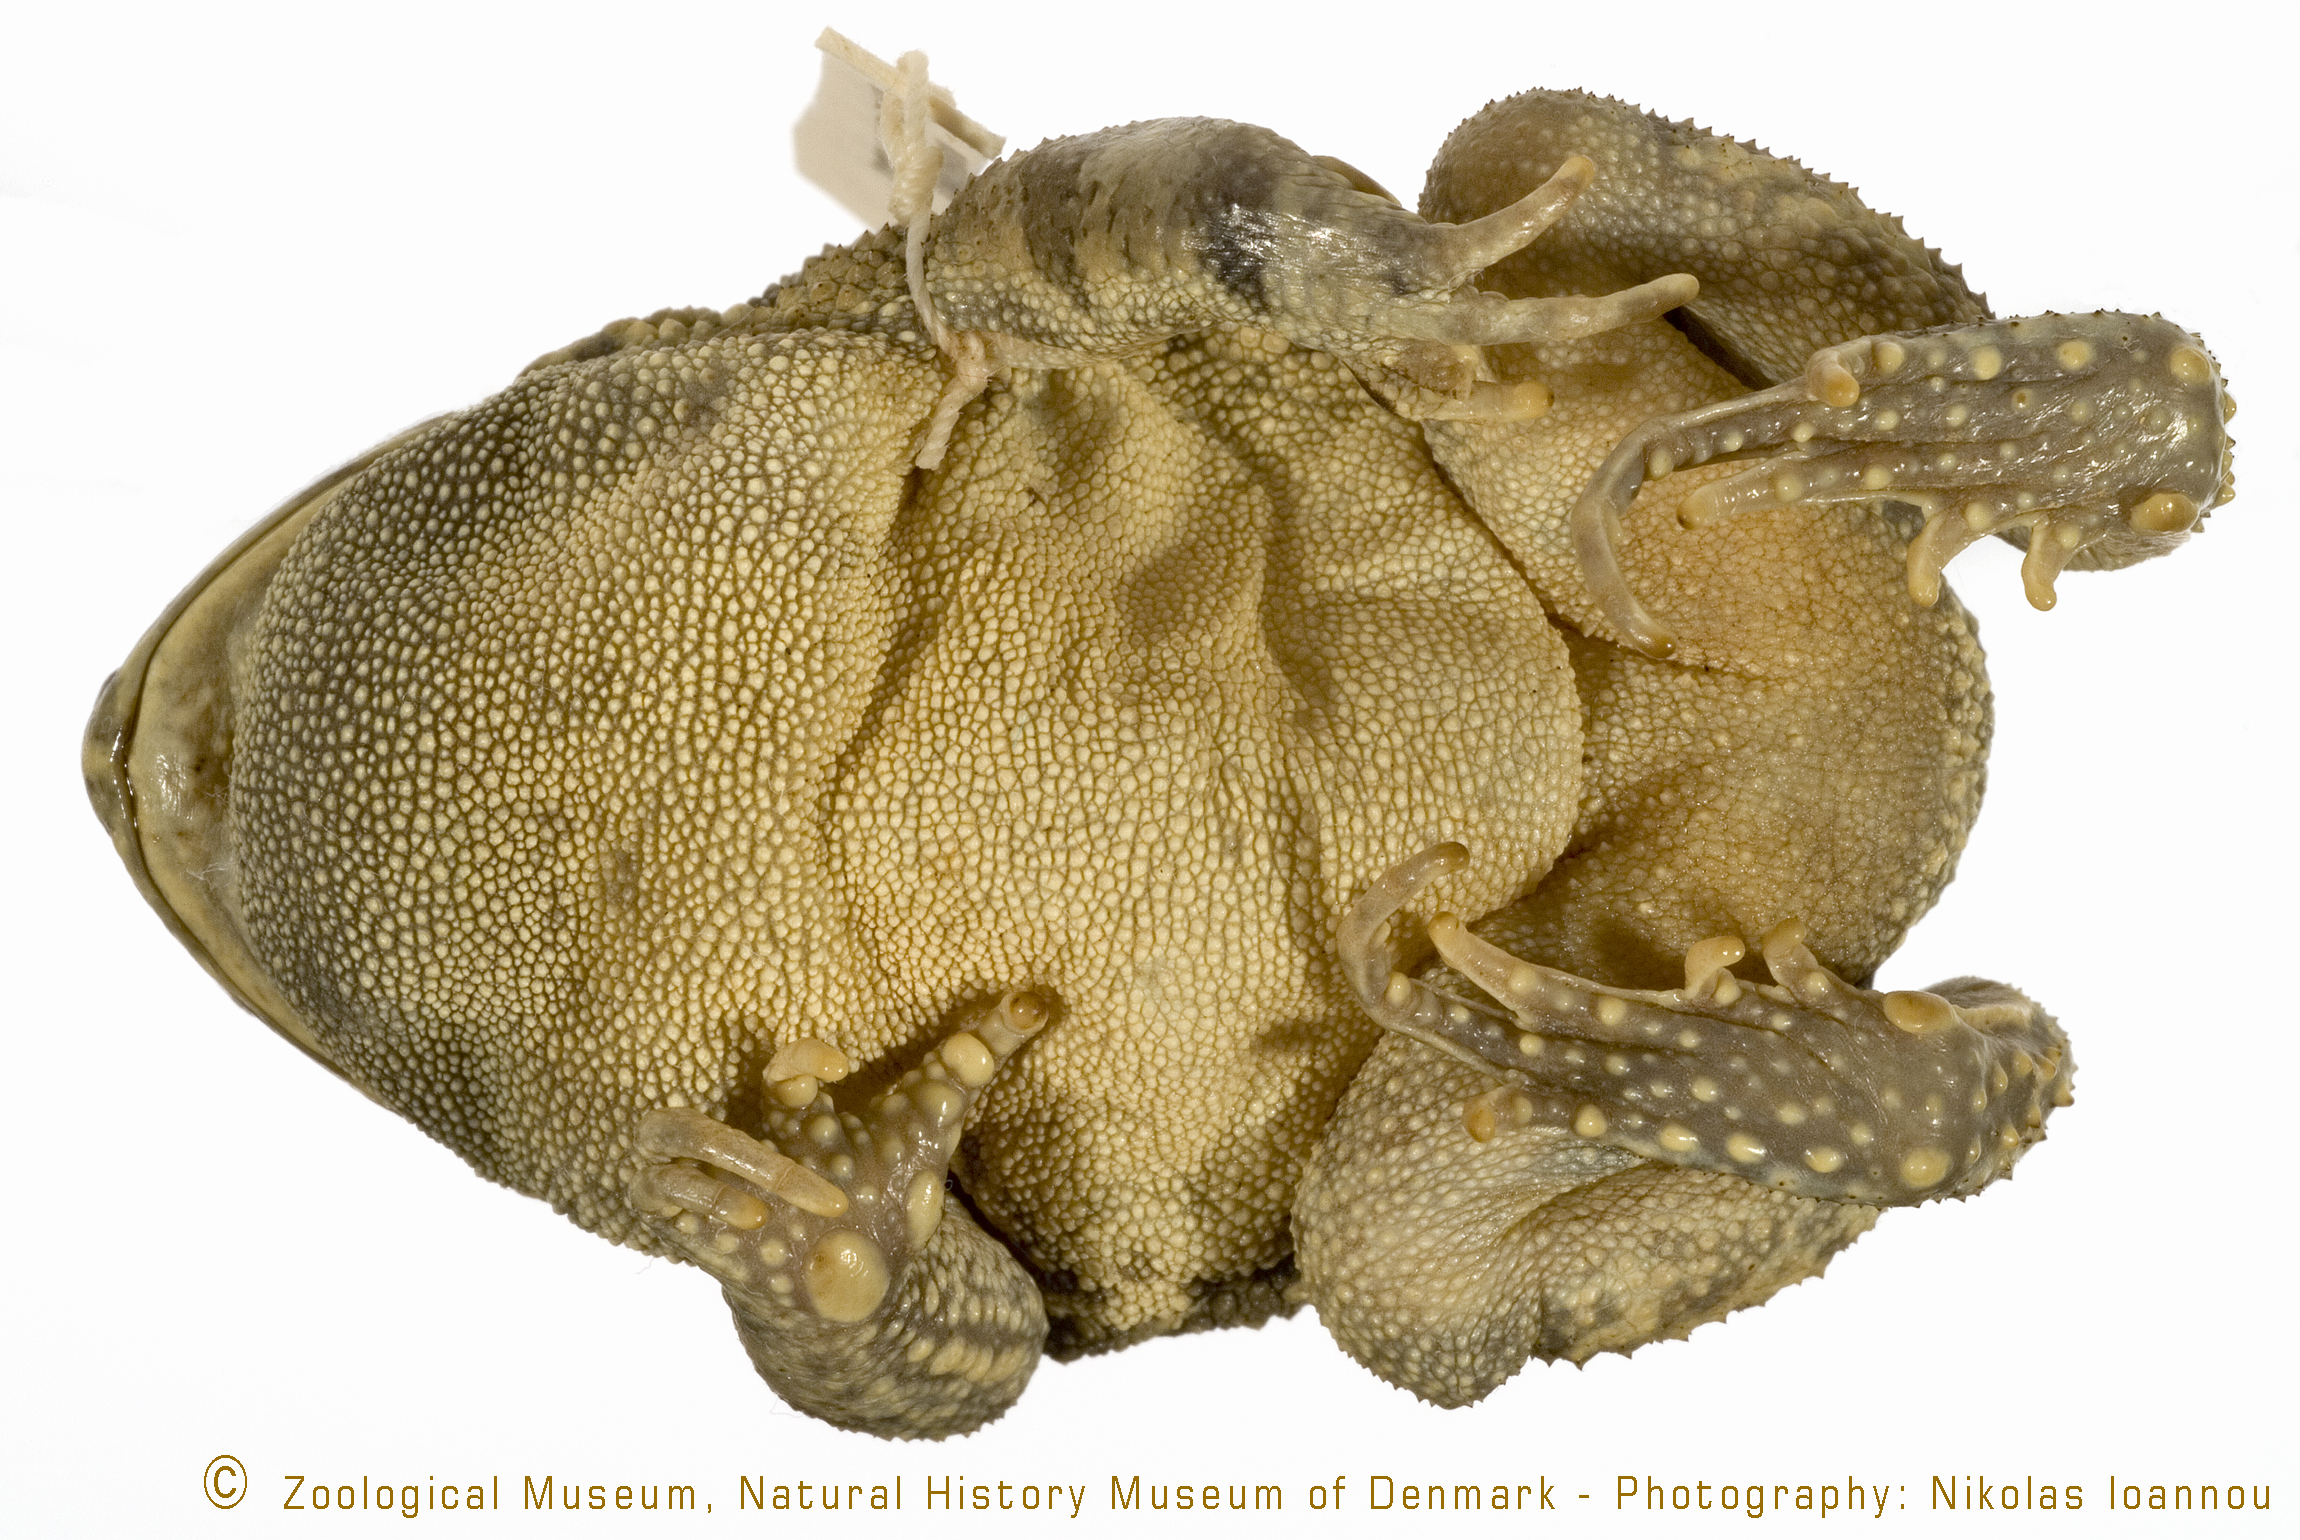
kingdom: Animalia
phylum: Chordata
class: Amphibia
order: Anura
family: Bufonidae
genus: Sclerophrys
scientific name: Sclerophrys regularis
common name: African common toad
